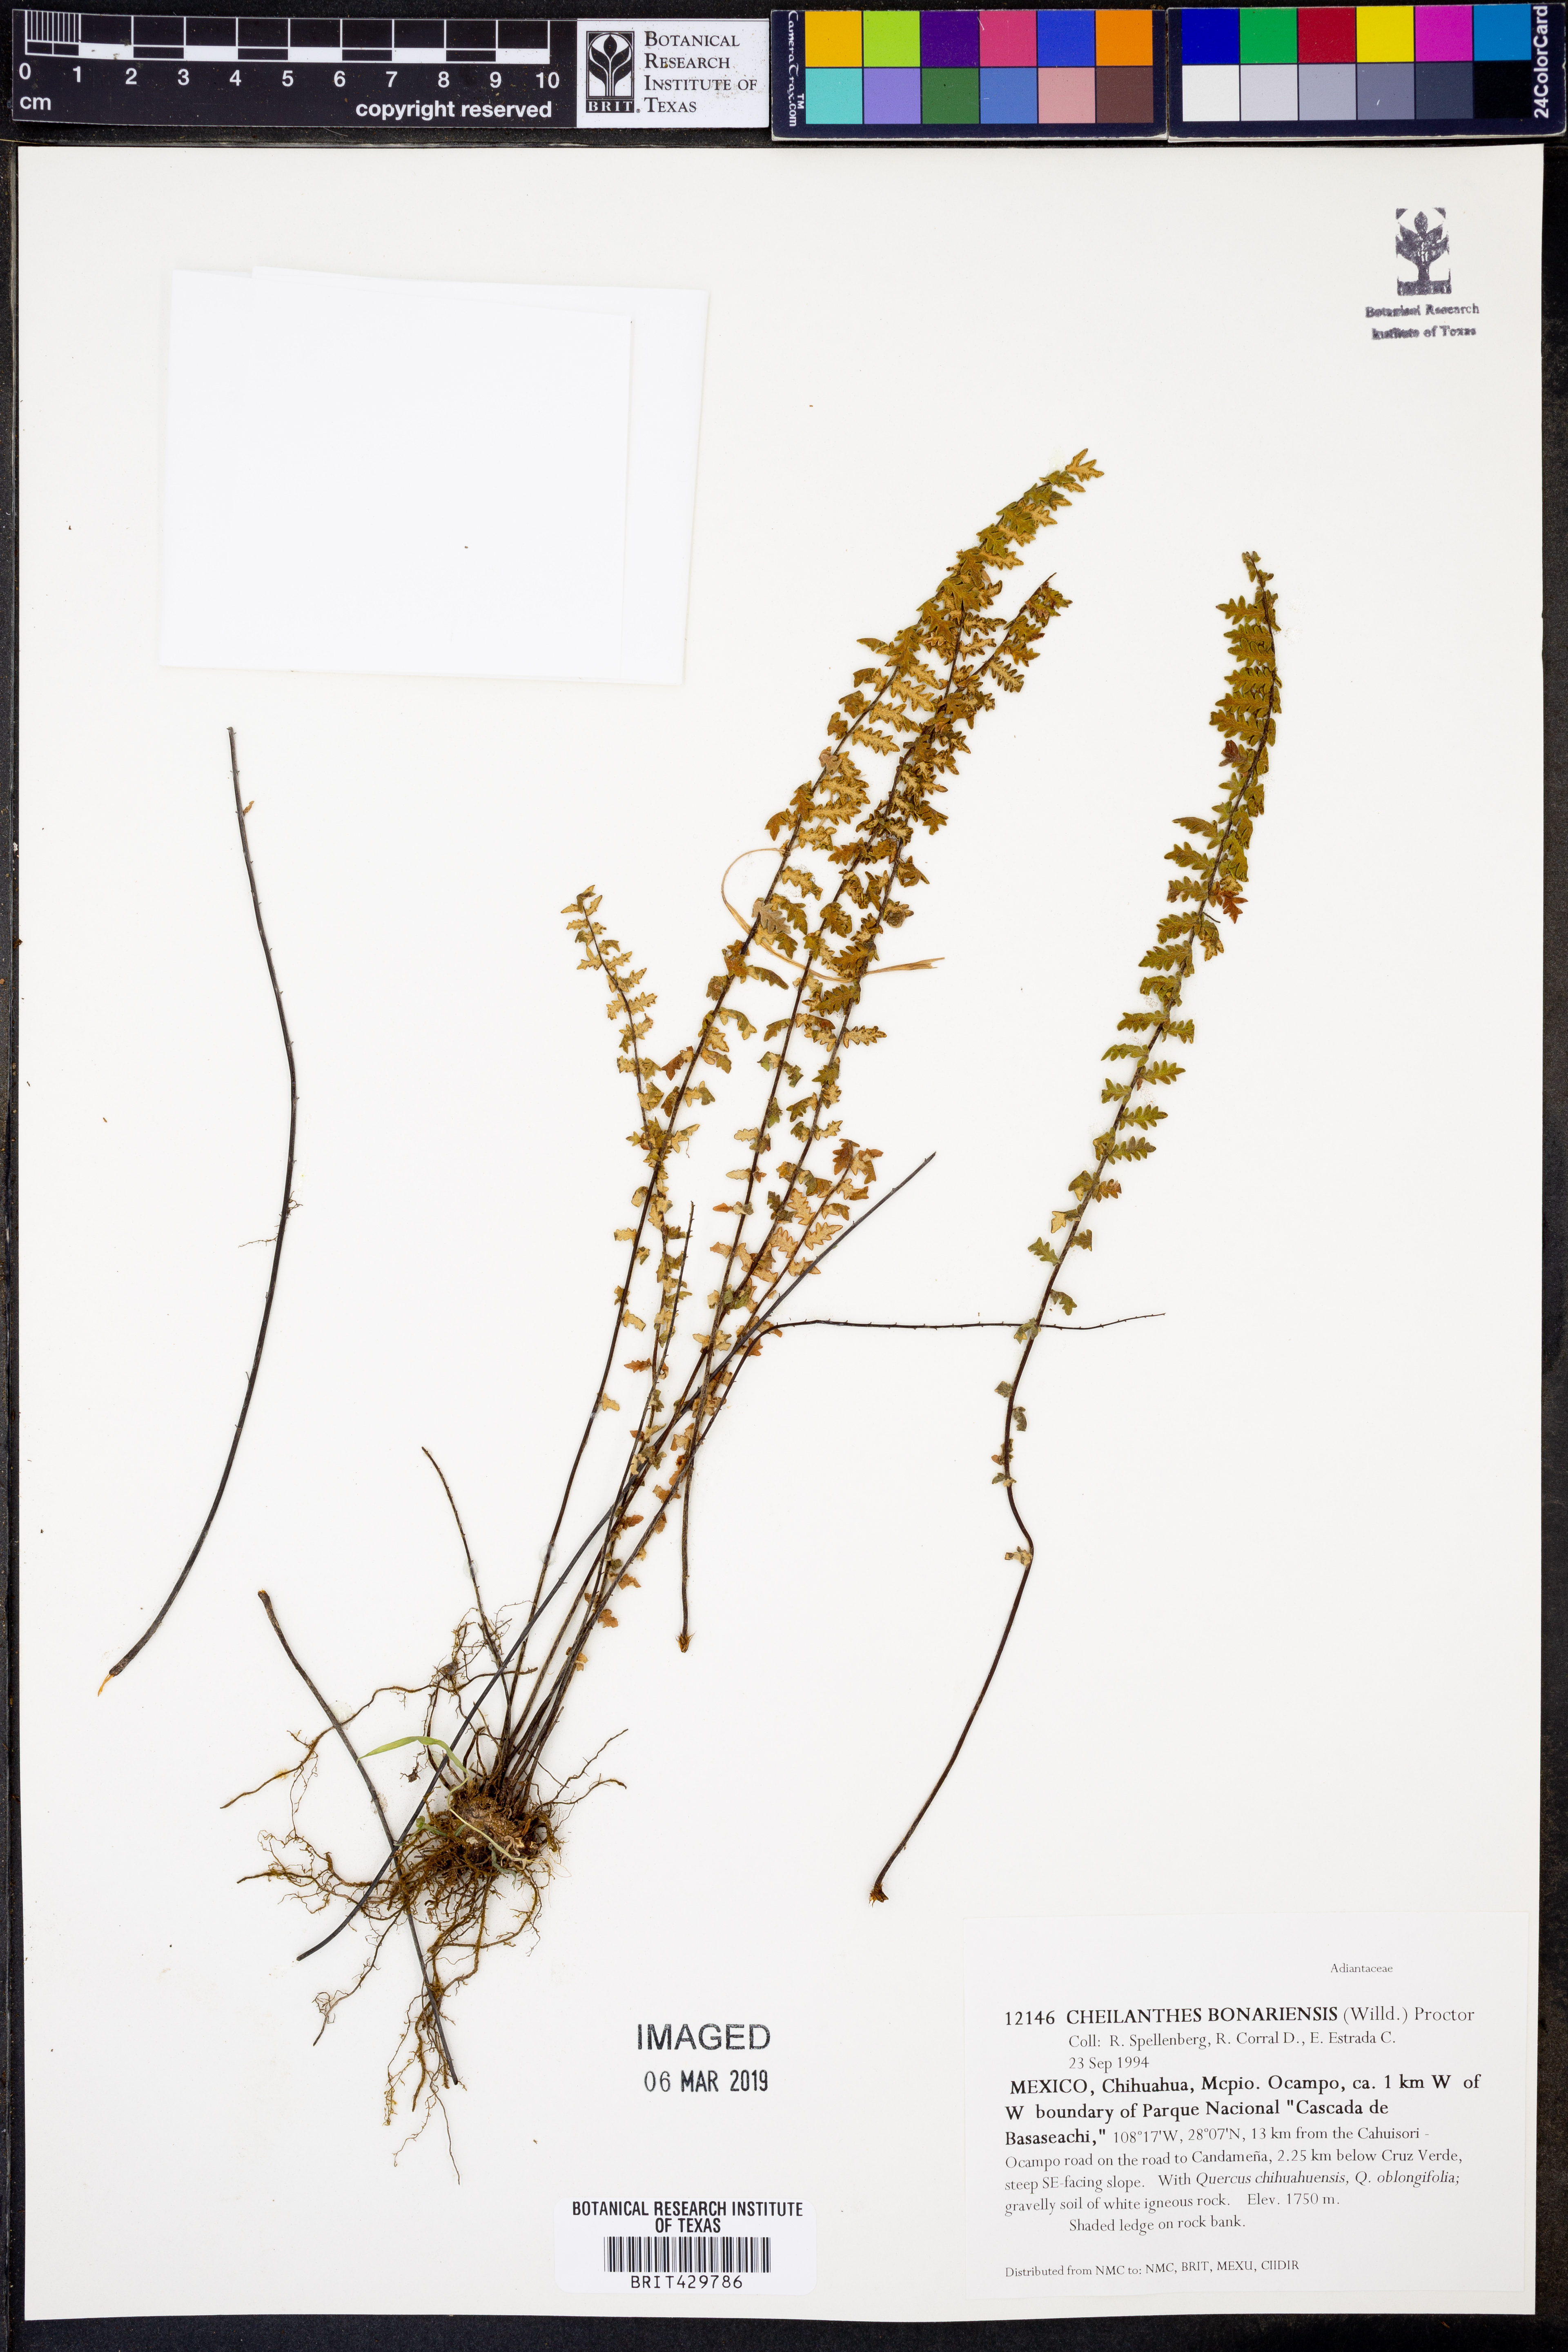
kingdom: Plantae
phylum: Tracheophyta
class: Polypodiopsida
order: Polypodiales
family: Pteridaceae
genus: Myriopteris
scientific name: Myriopteris aurea
